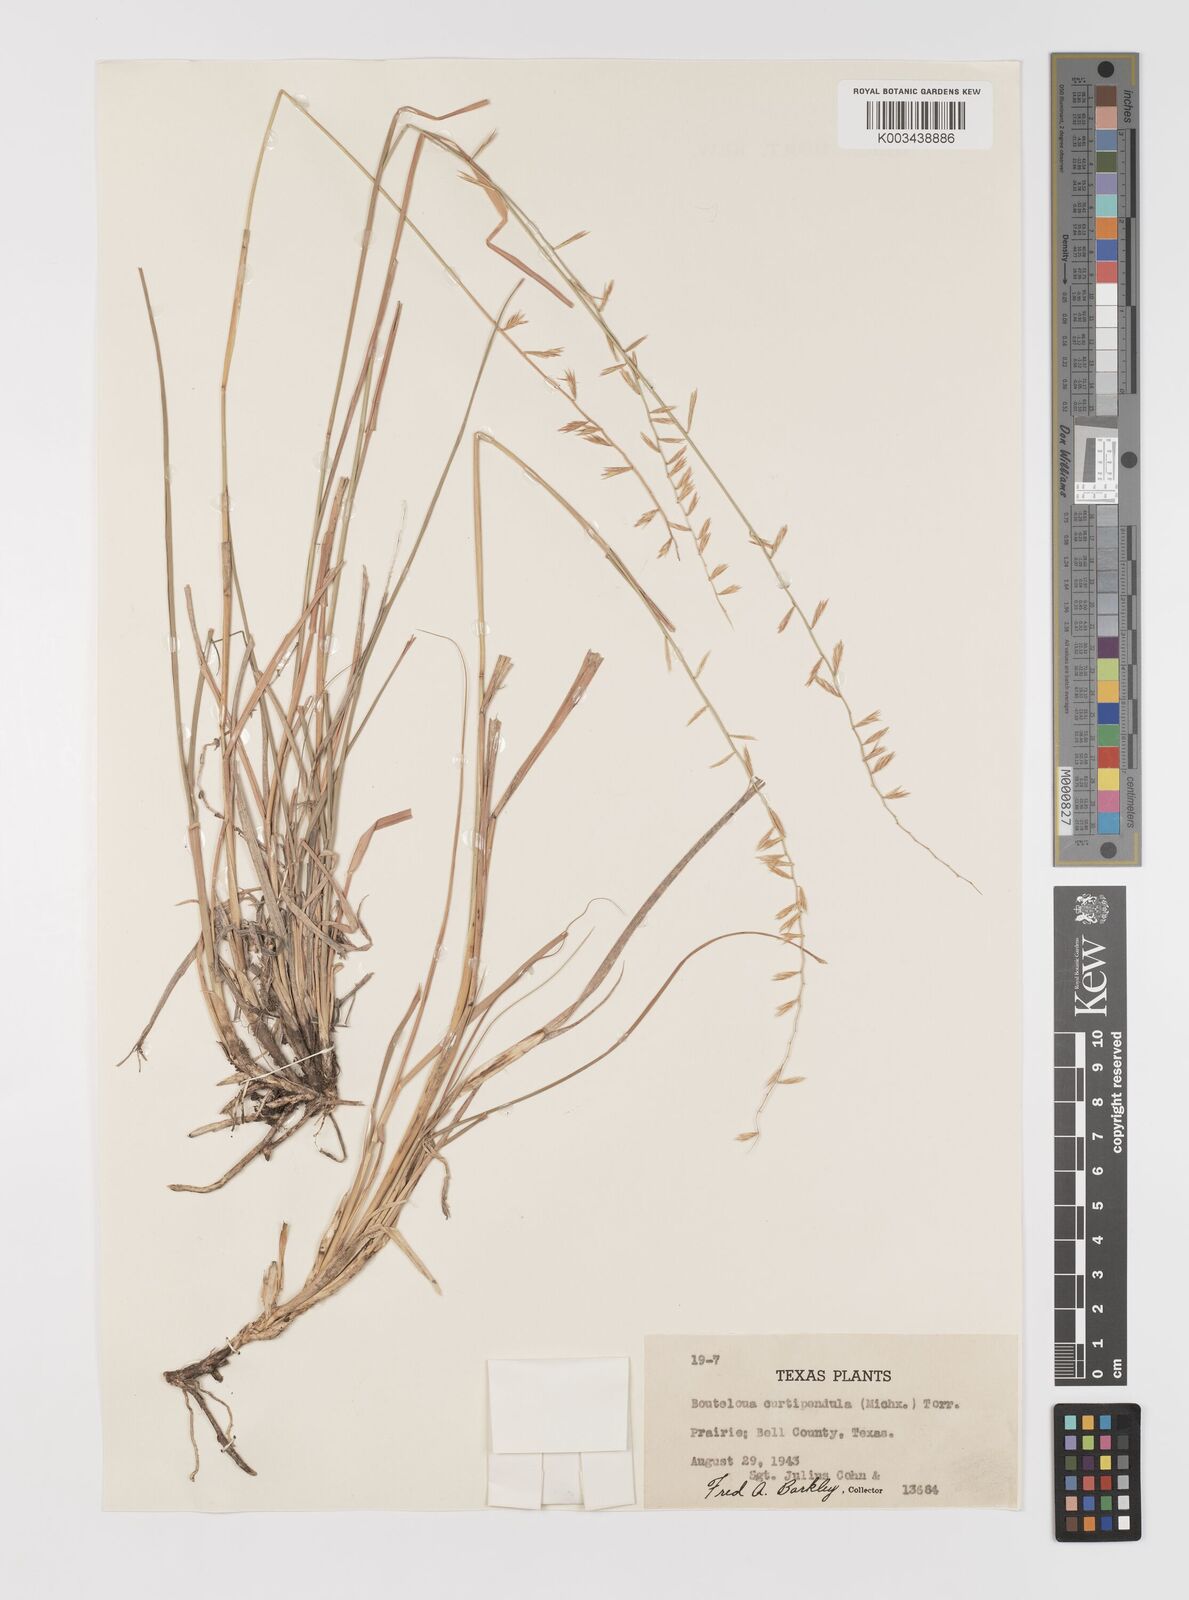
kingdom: Plantae
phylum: Tracheophyta
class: Liliopsida
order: Poales
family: Poaceae
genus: Bouteloua
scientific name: Bouteloua curtipendula
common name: Side-oats grama
